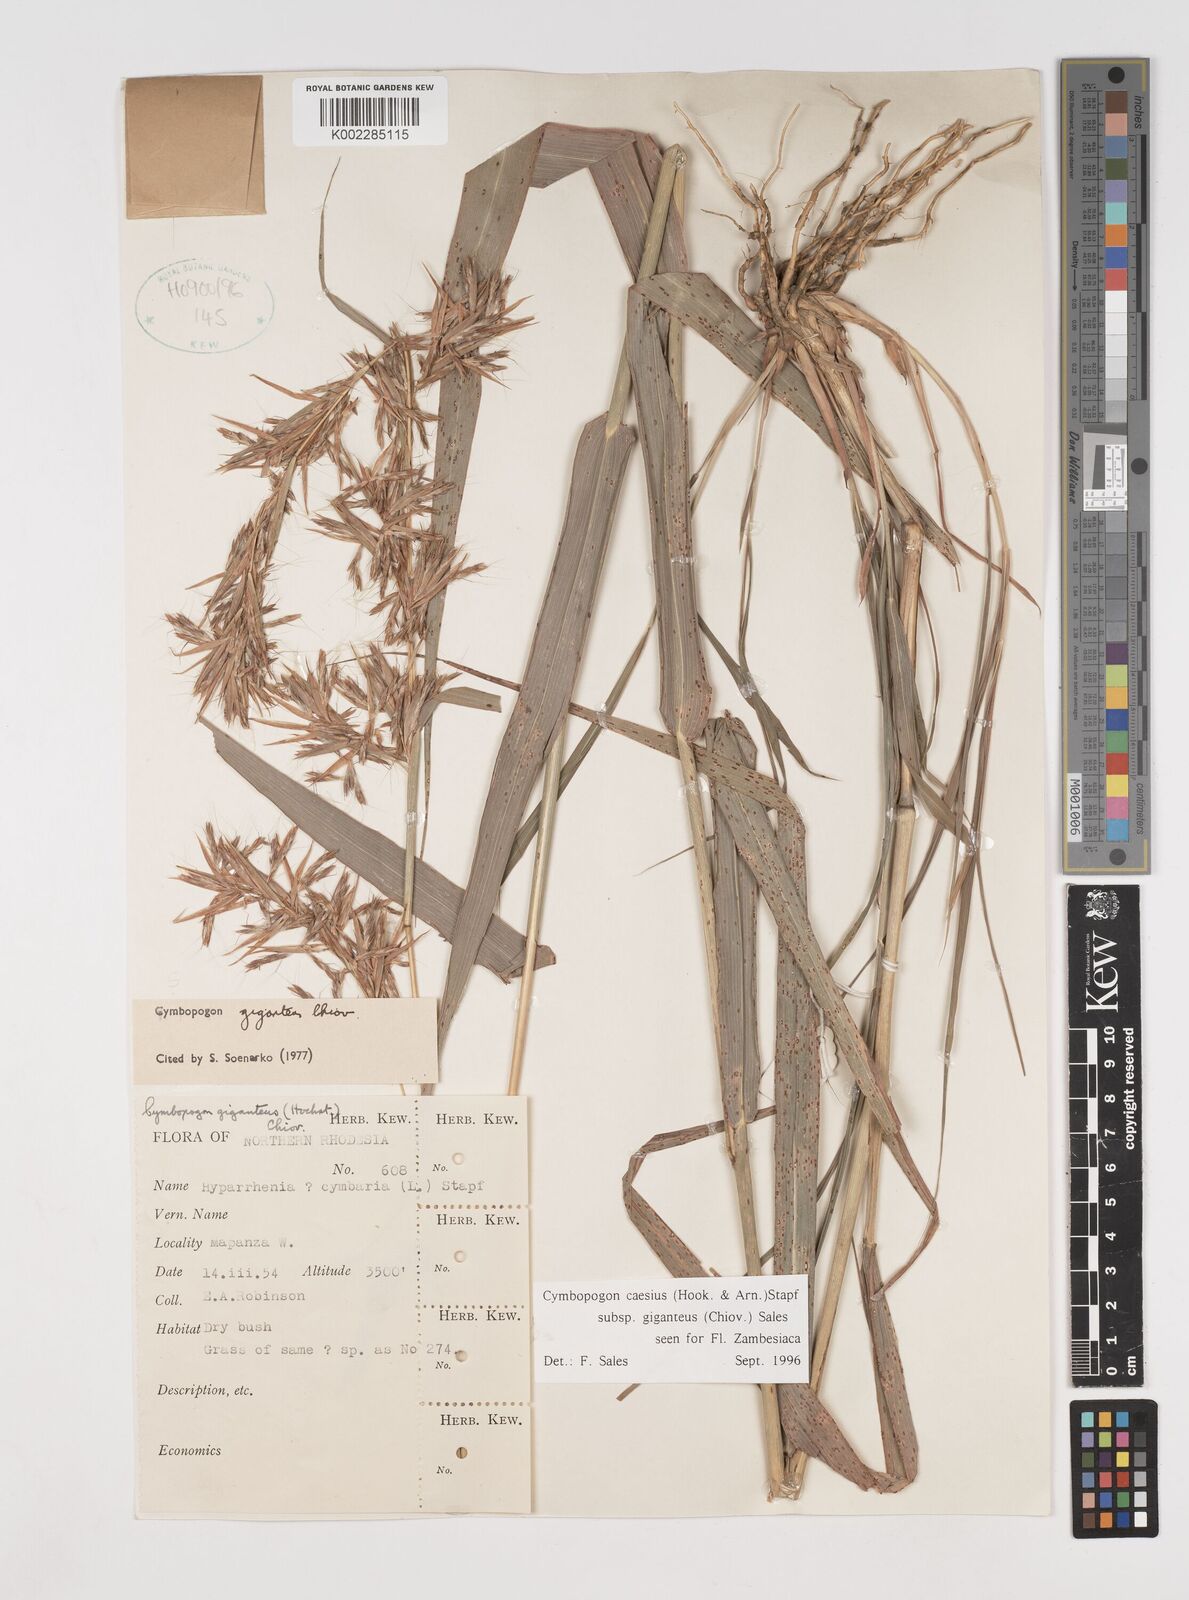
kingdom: Plantae
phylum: Tracheophyta
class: Liliopsida
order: Poales
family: Poaceae
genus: Cymbopogon
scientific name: Cymbopogon giganteus
